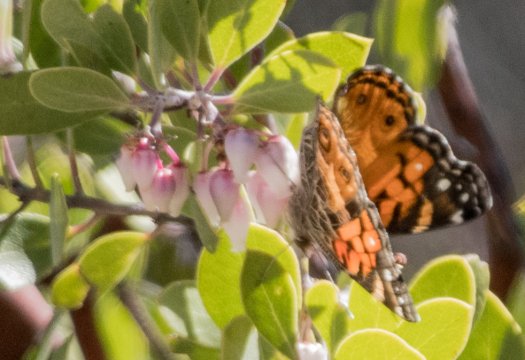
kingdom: Animalia
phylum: Arthropoda
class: Insecta
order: Lepidoptera
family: Nymphalidae
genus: Vanessa
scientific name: Vanessa virginiensis
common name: American Lady
